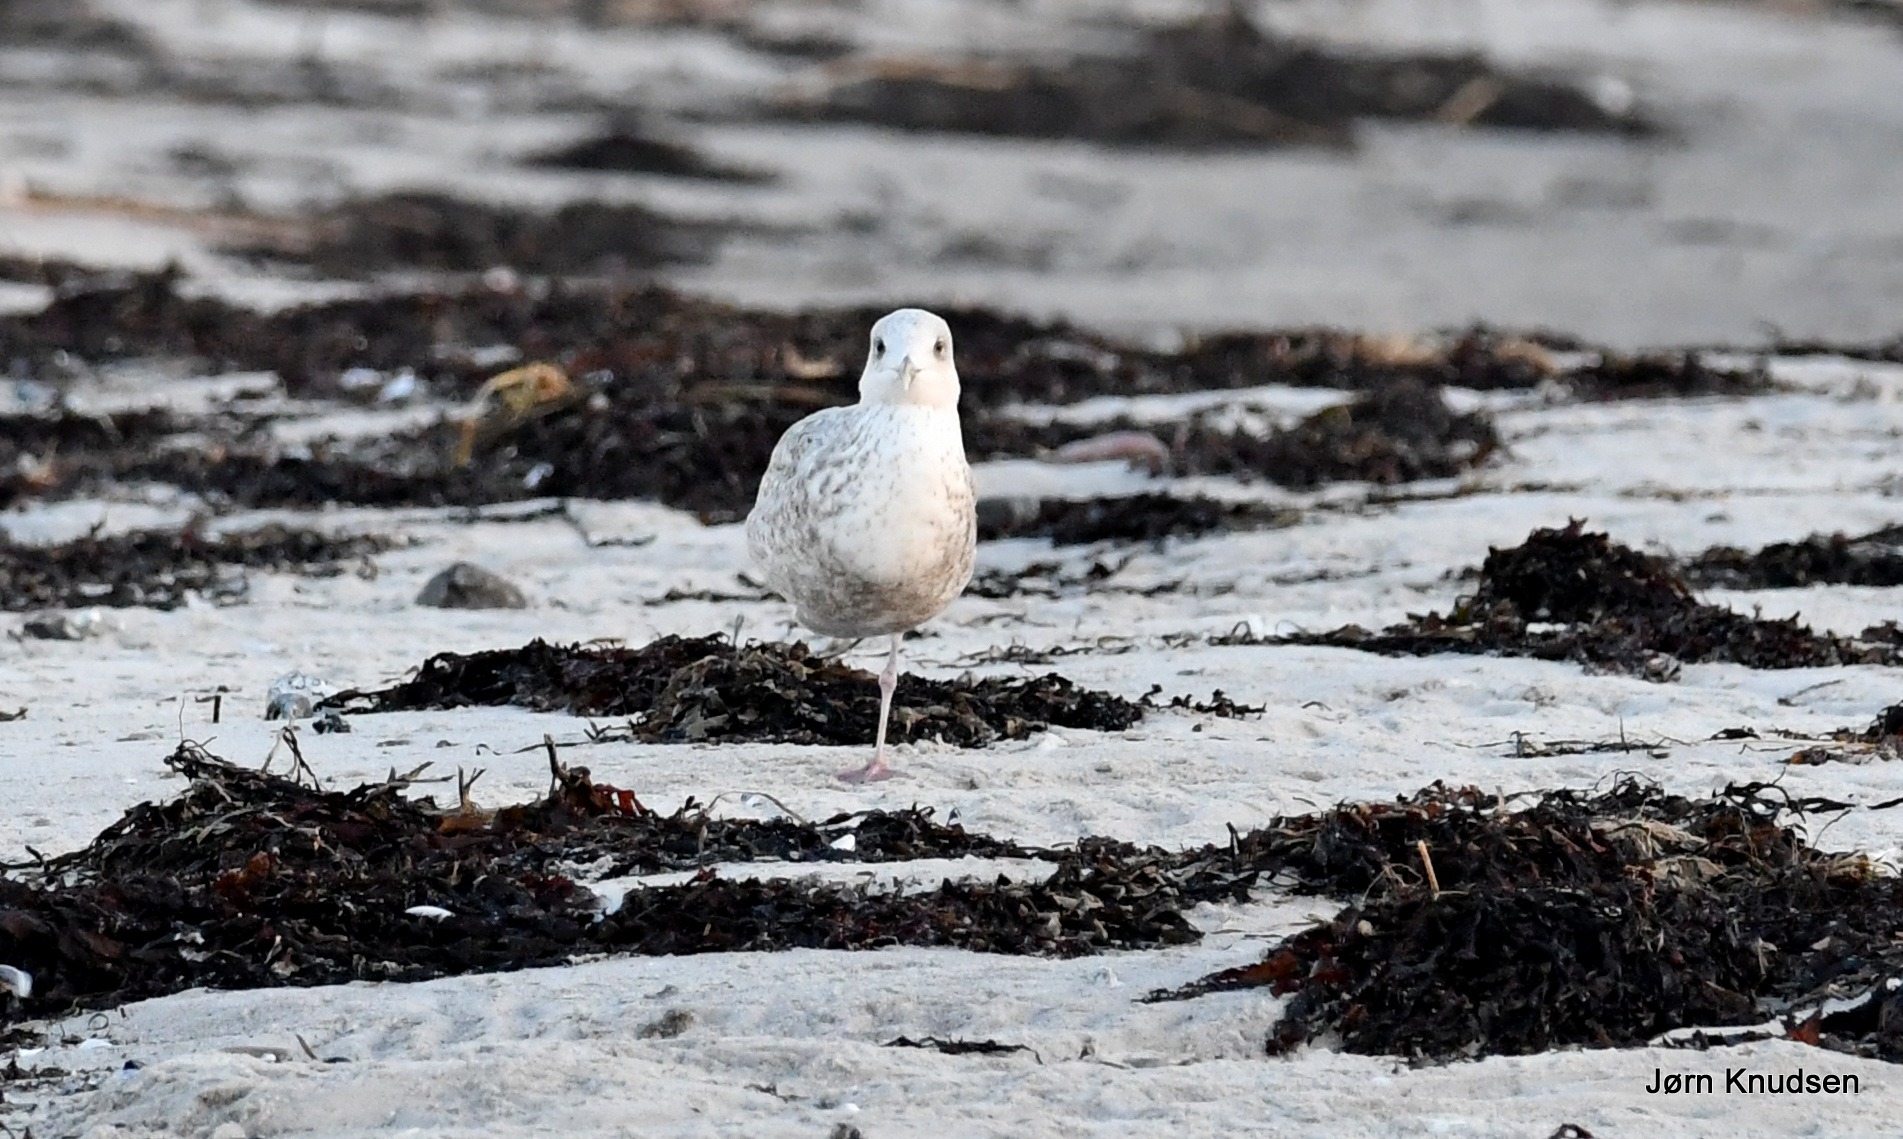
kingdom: Animalia
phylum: Chordata
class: Aves
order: Charadriiformes
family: Laridae
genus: Larus
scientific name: Larus argentatus
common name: Sølvmåge
